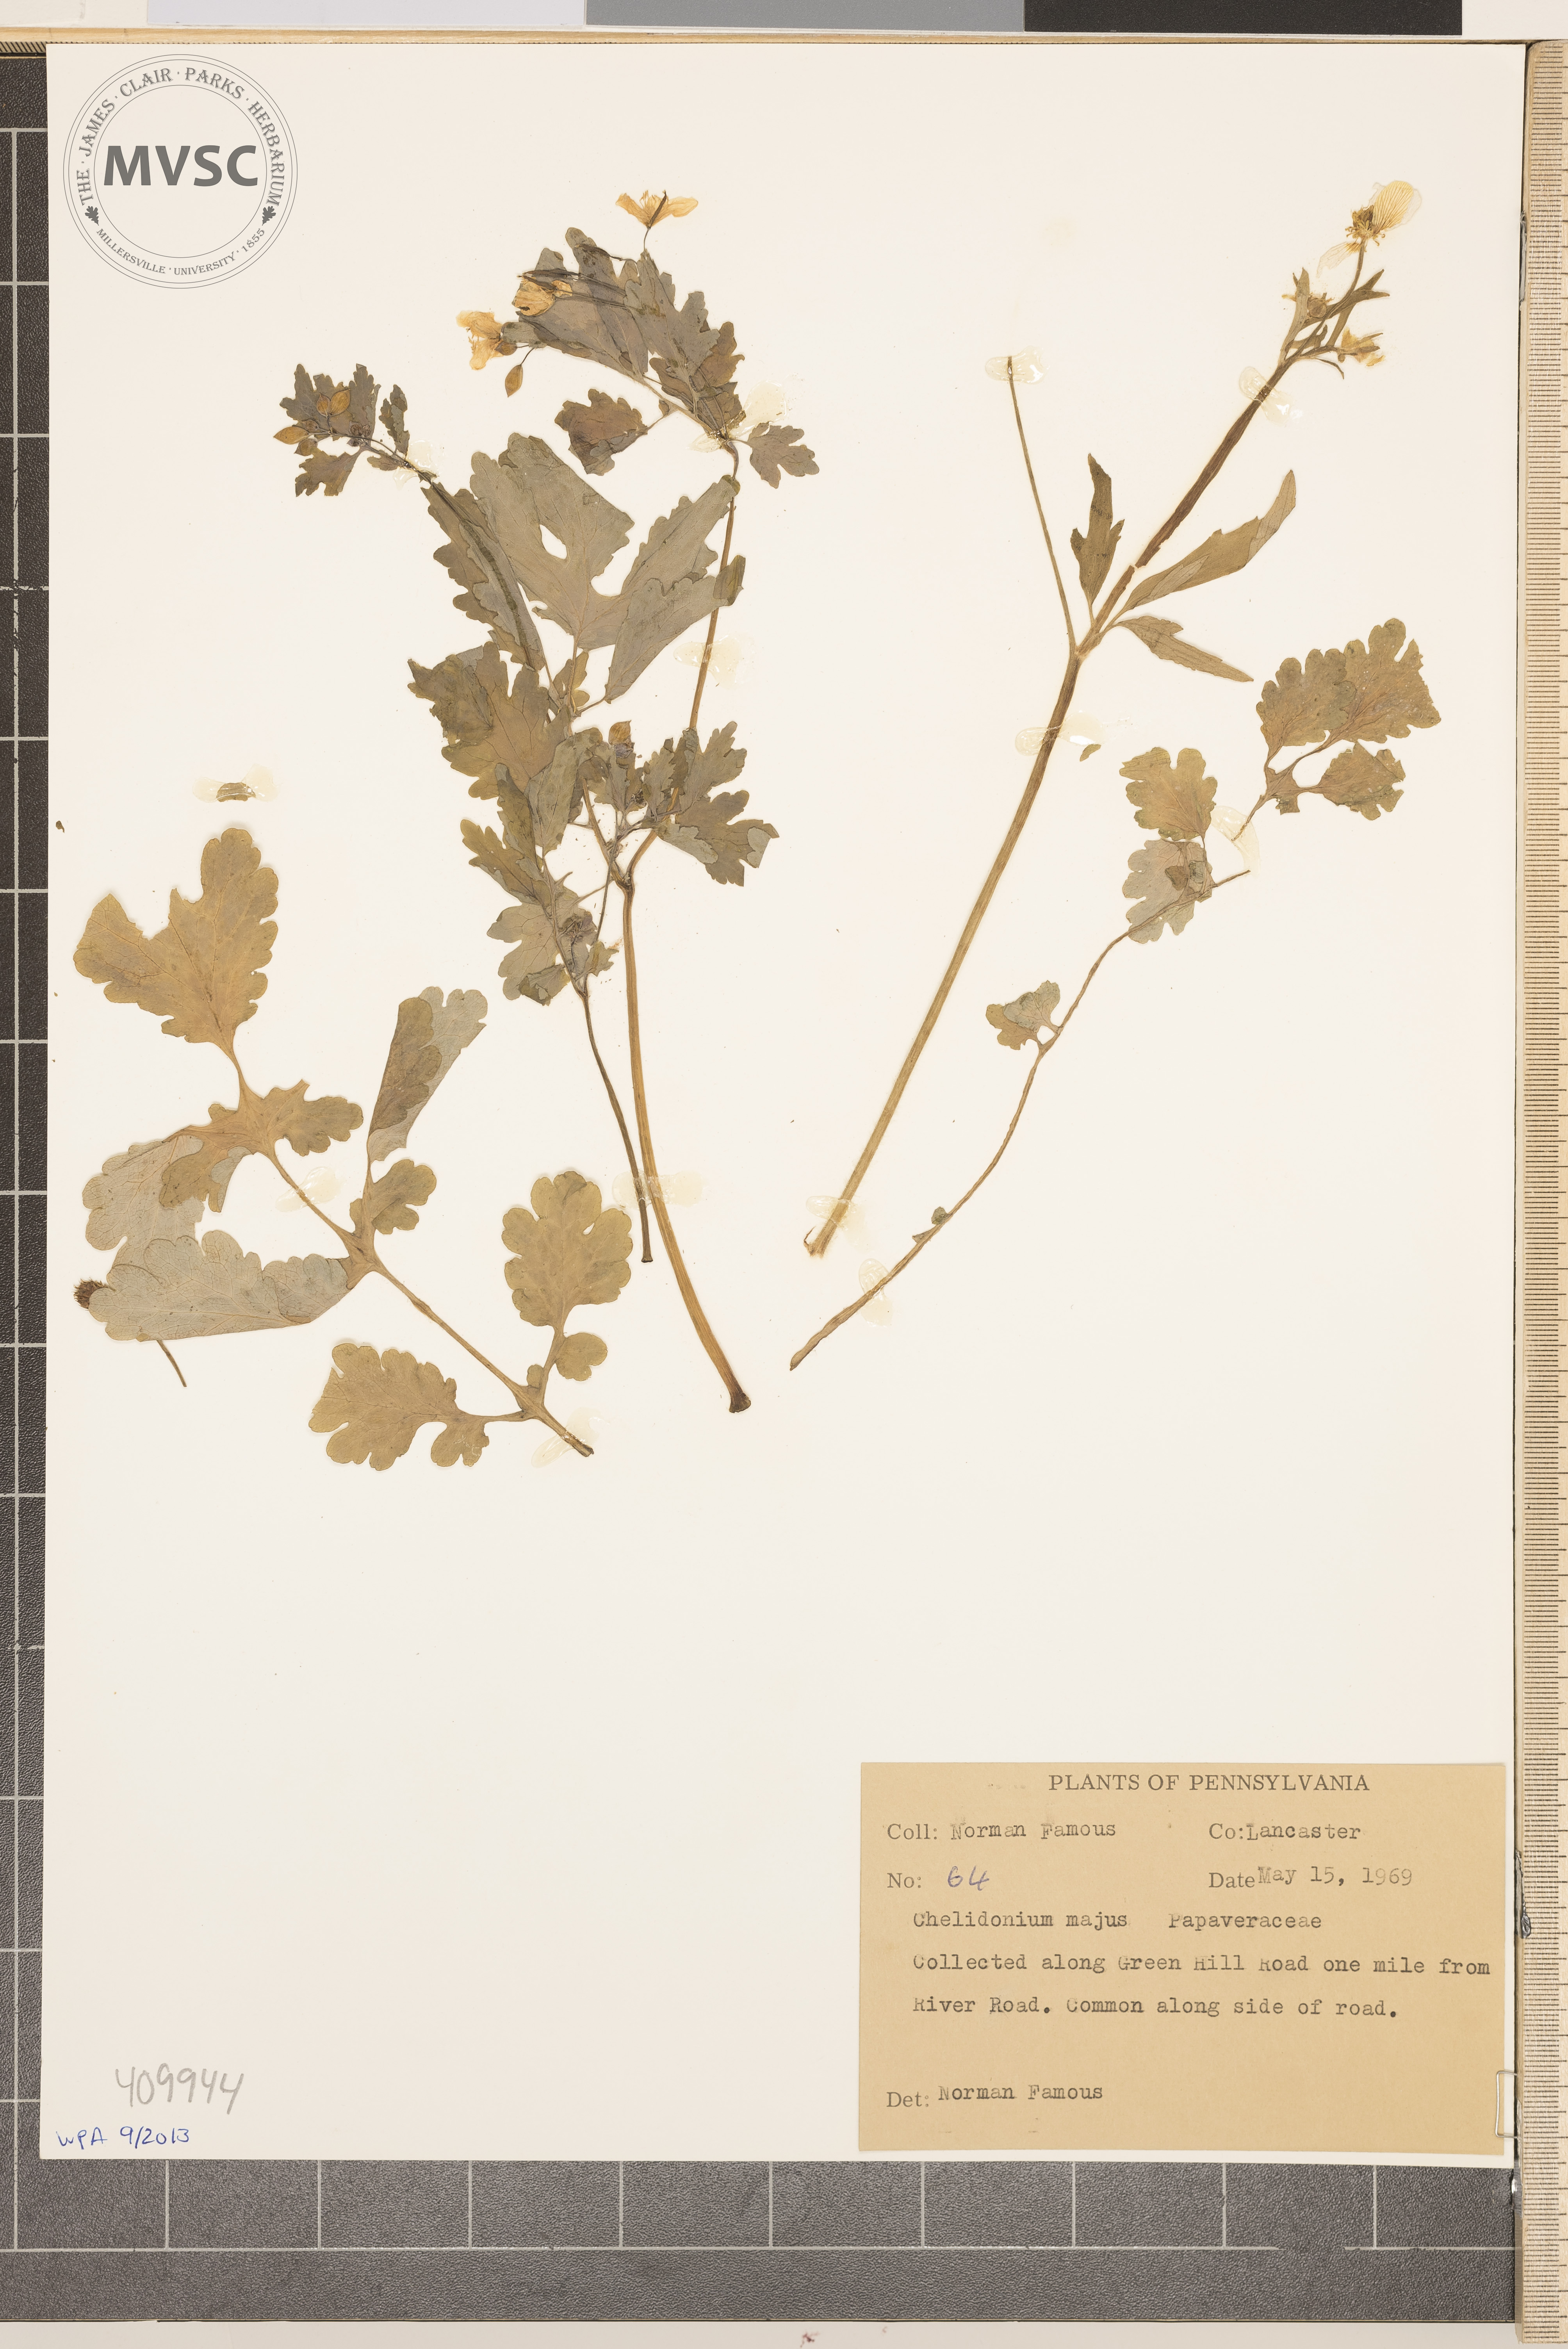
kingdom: Plantae
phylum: Tracheophyta
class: Magnoliopsida
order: Ranunculales
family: Papaveraceae
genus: Chelidonium
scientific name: Chelidonium majus
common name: Greater celandine
